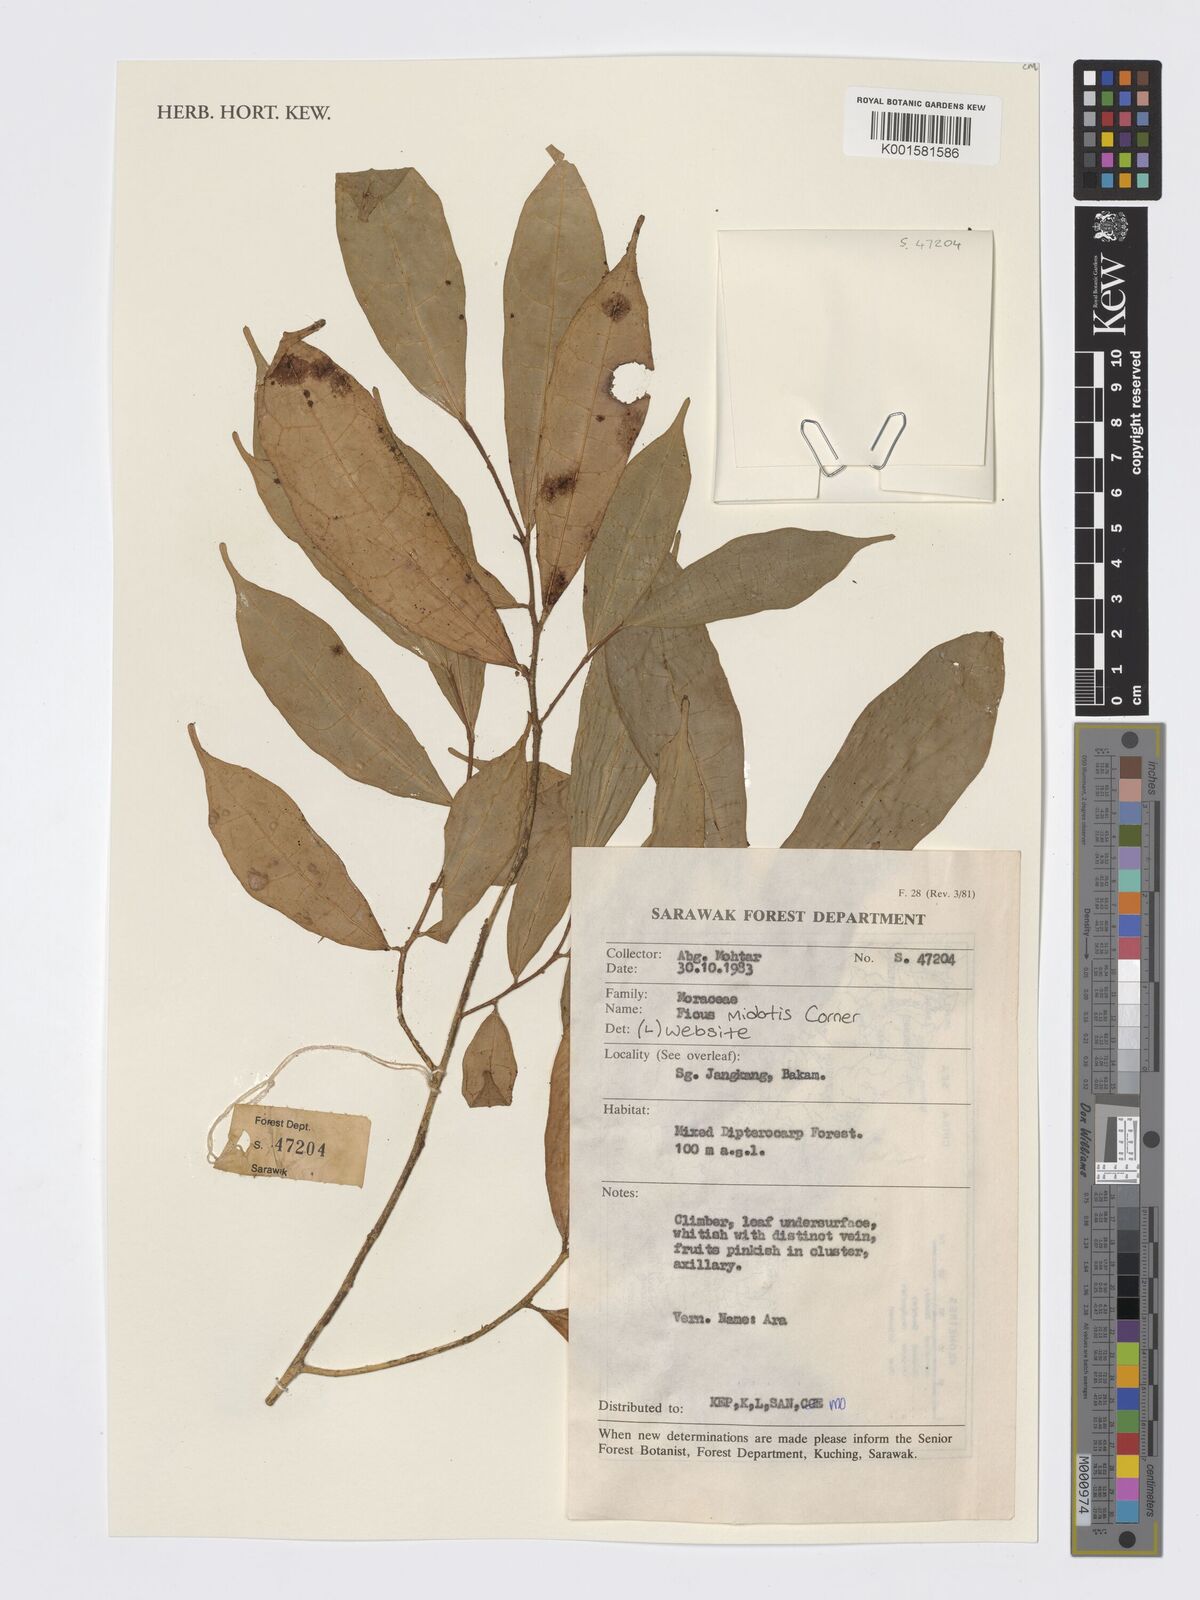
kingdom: Plantae
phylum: Tracheophyta
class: Magnoliopsida
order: Rosales
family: Moraceae
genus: Ficus
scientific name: Ficus midotis
